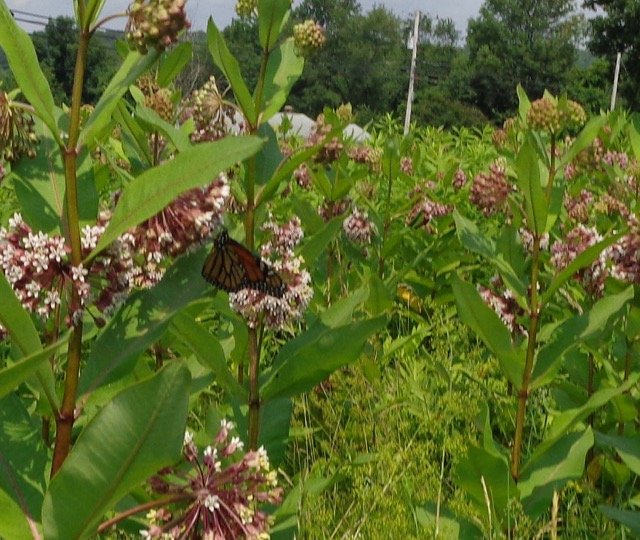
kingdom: Animalia
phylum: Arthropoda
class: Insecta
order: Lepidoptera
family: Nymphalidae
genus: Danaus
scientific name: Danaus plexippus
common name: Monarch
